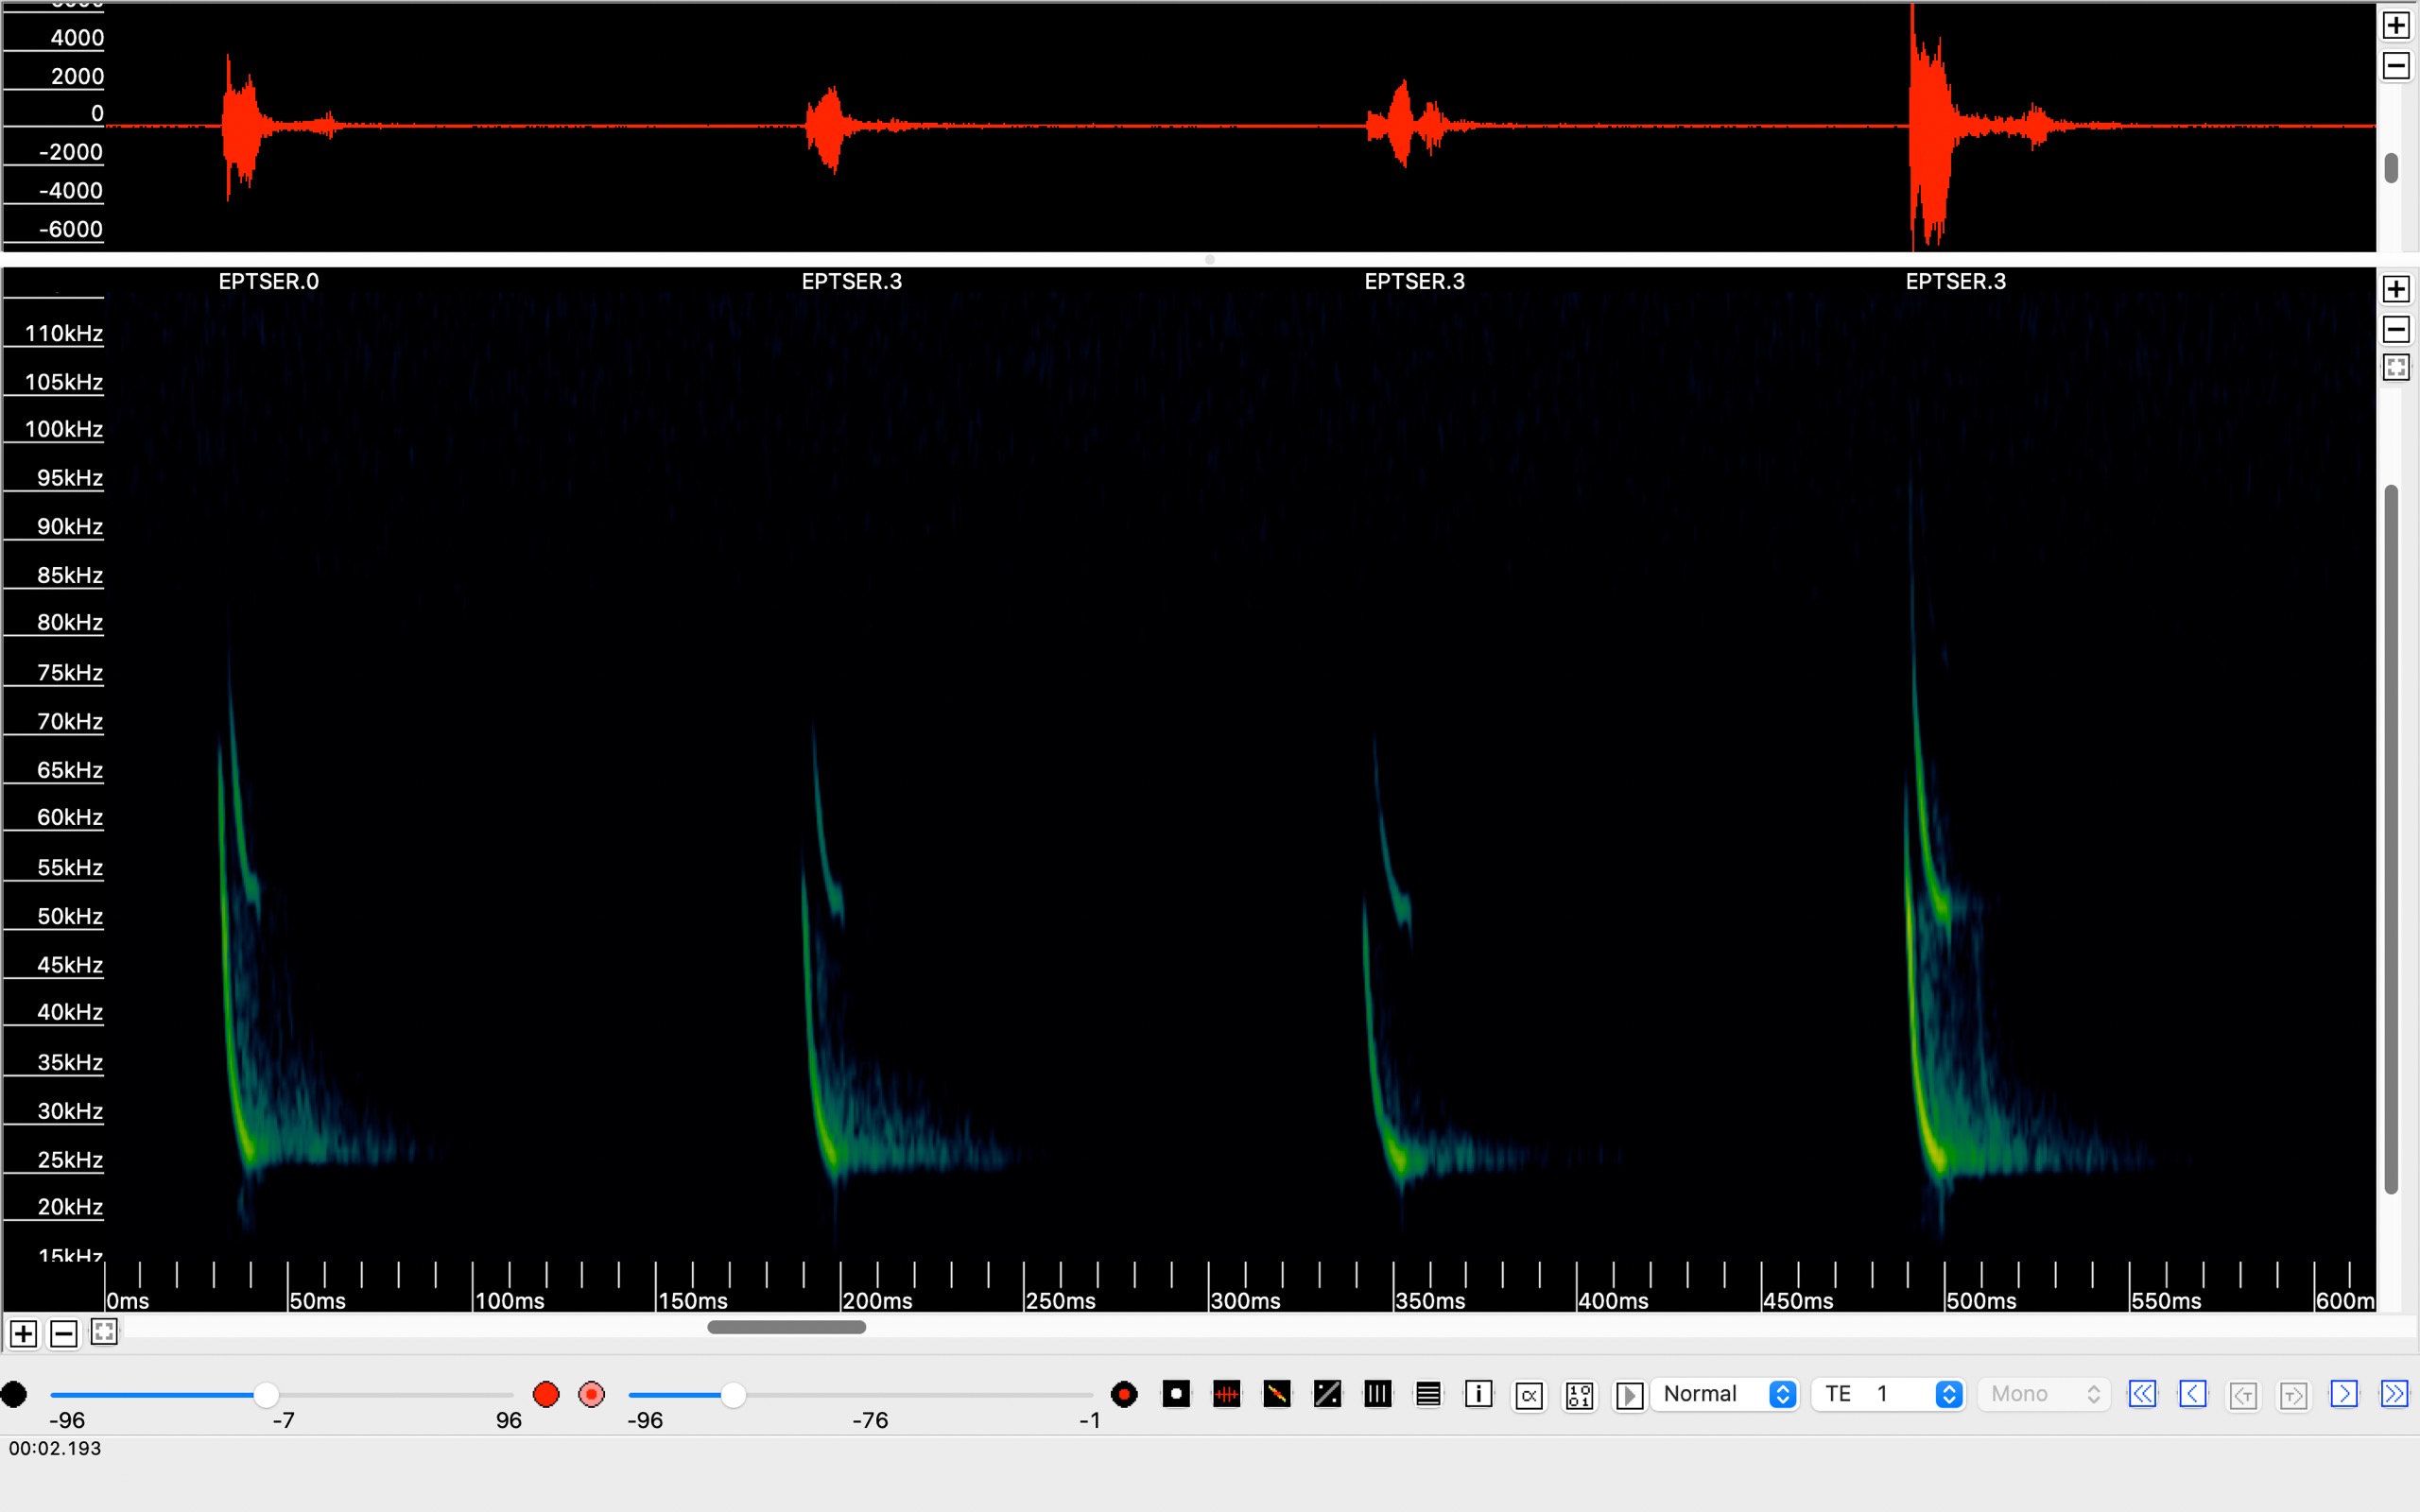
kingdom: Animalia
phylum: Chordata
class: Mammalia
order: Chiroptera
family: Vespertilionidae
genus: Eptesicus
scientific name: Eptesicus serotinus
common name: Sydflagermus
